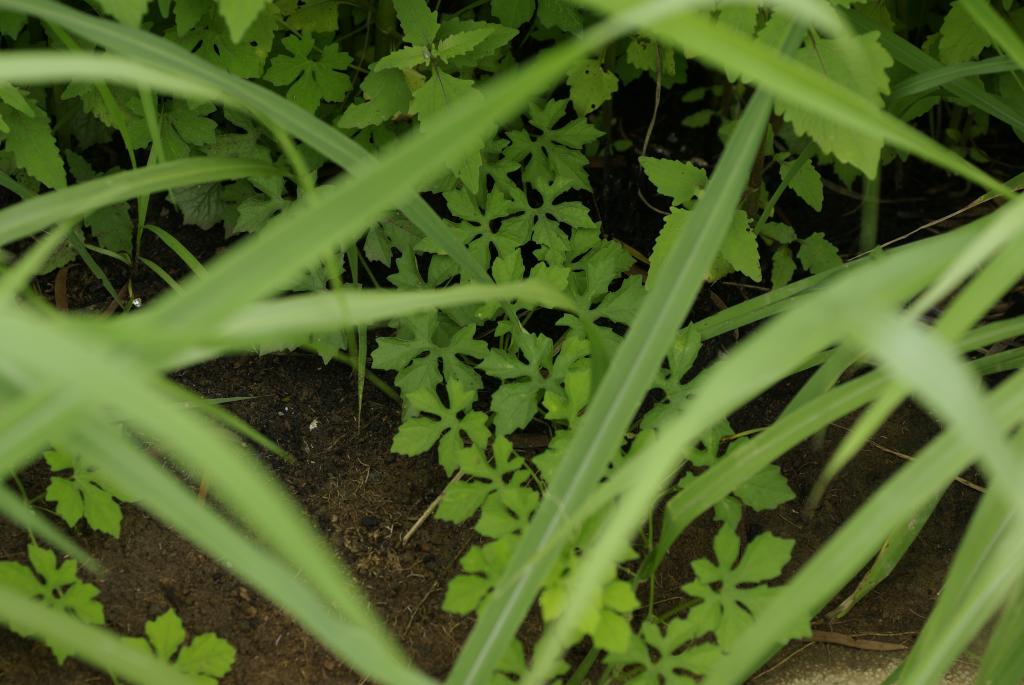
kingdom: Plantae
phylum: Tracheophyta
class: Magnoliopsida
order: Cucurbitales
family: Cucurbitaceae
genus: Momordica
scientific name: Momordica charantia
